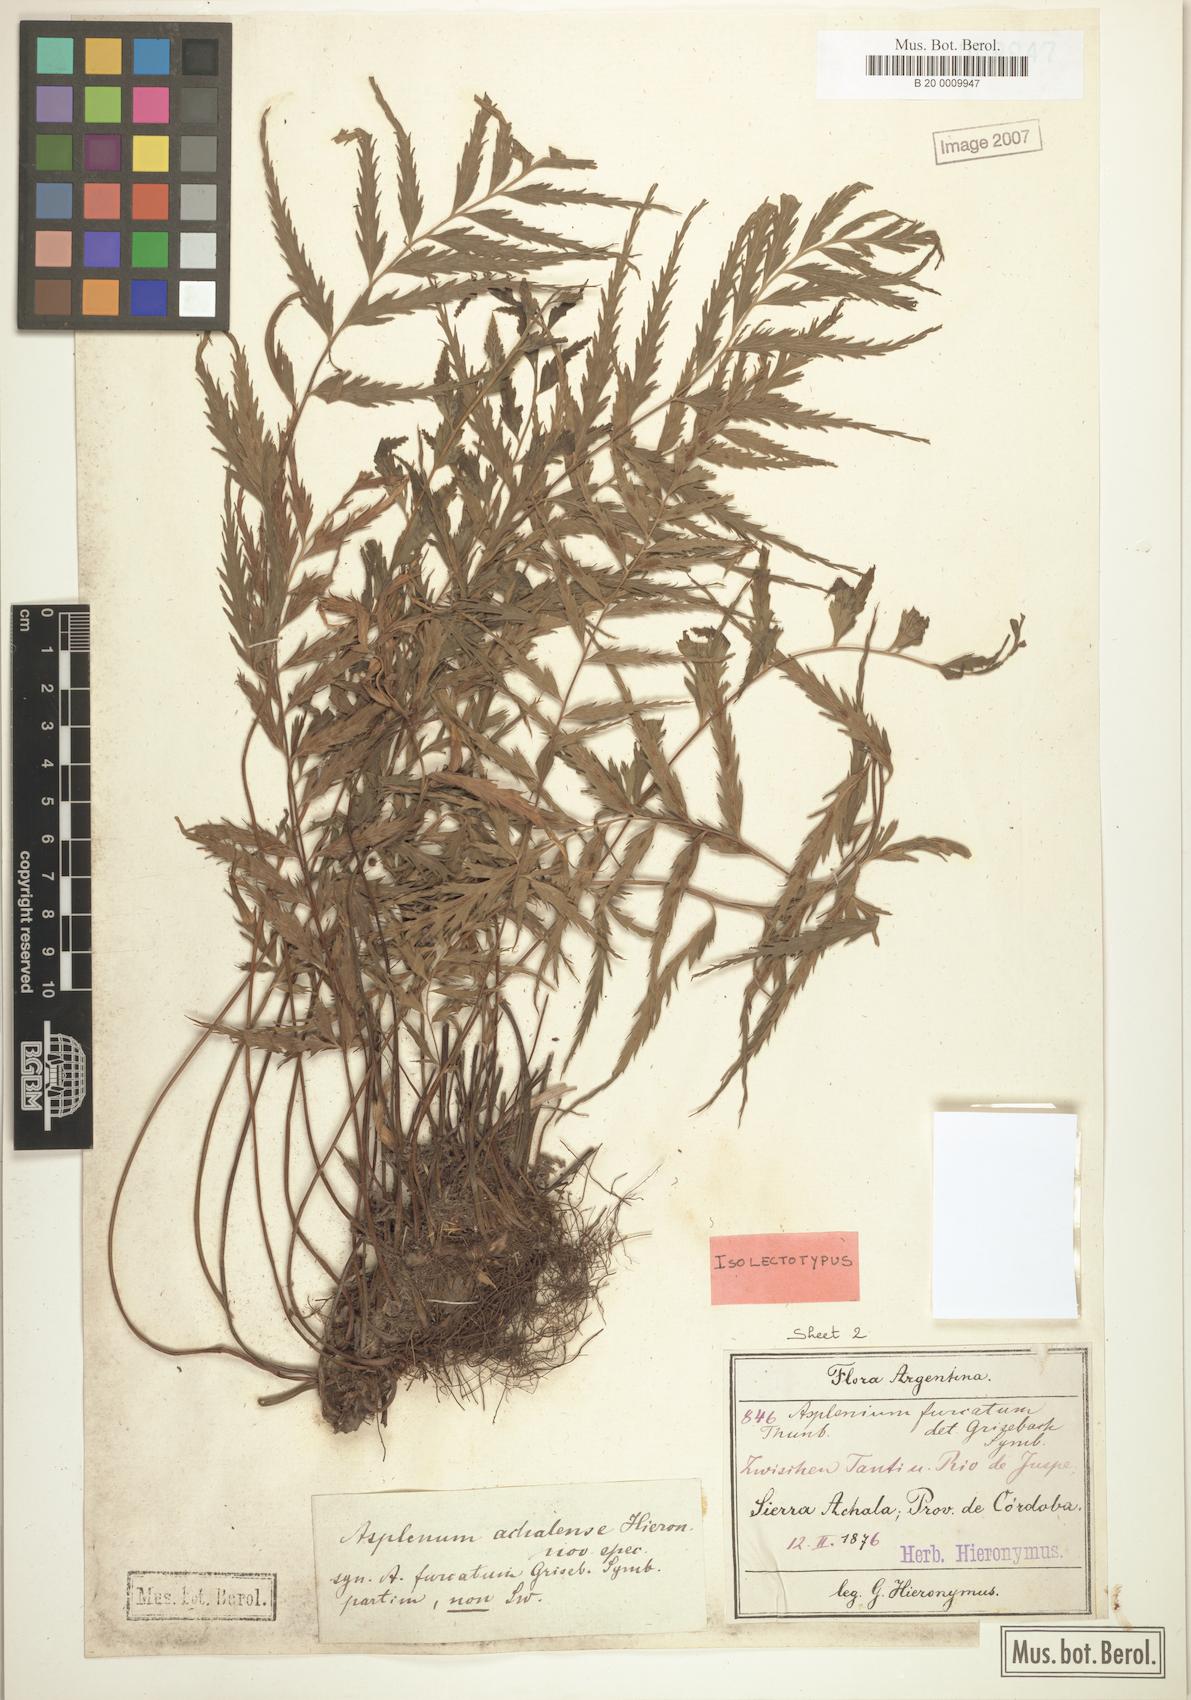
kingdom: Plantae
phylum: Tracheophyta
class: Polypodiopsida
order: Polypodiales
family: Aspleniaceae
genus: Asplenium
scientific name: Asplenium achalense
